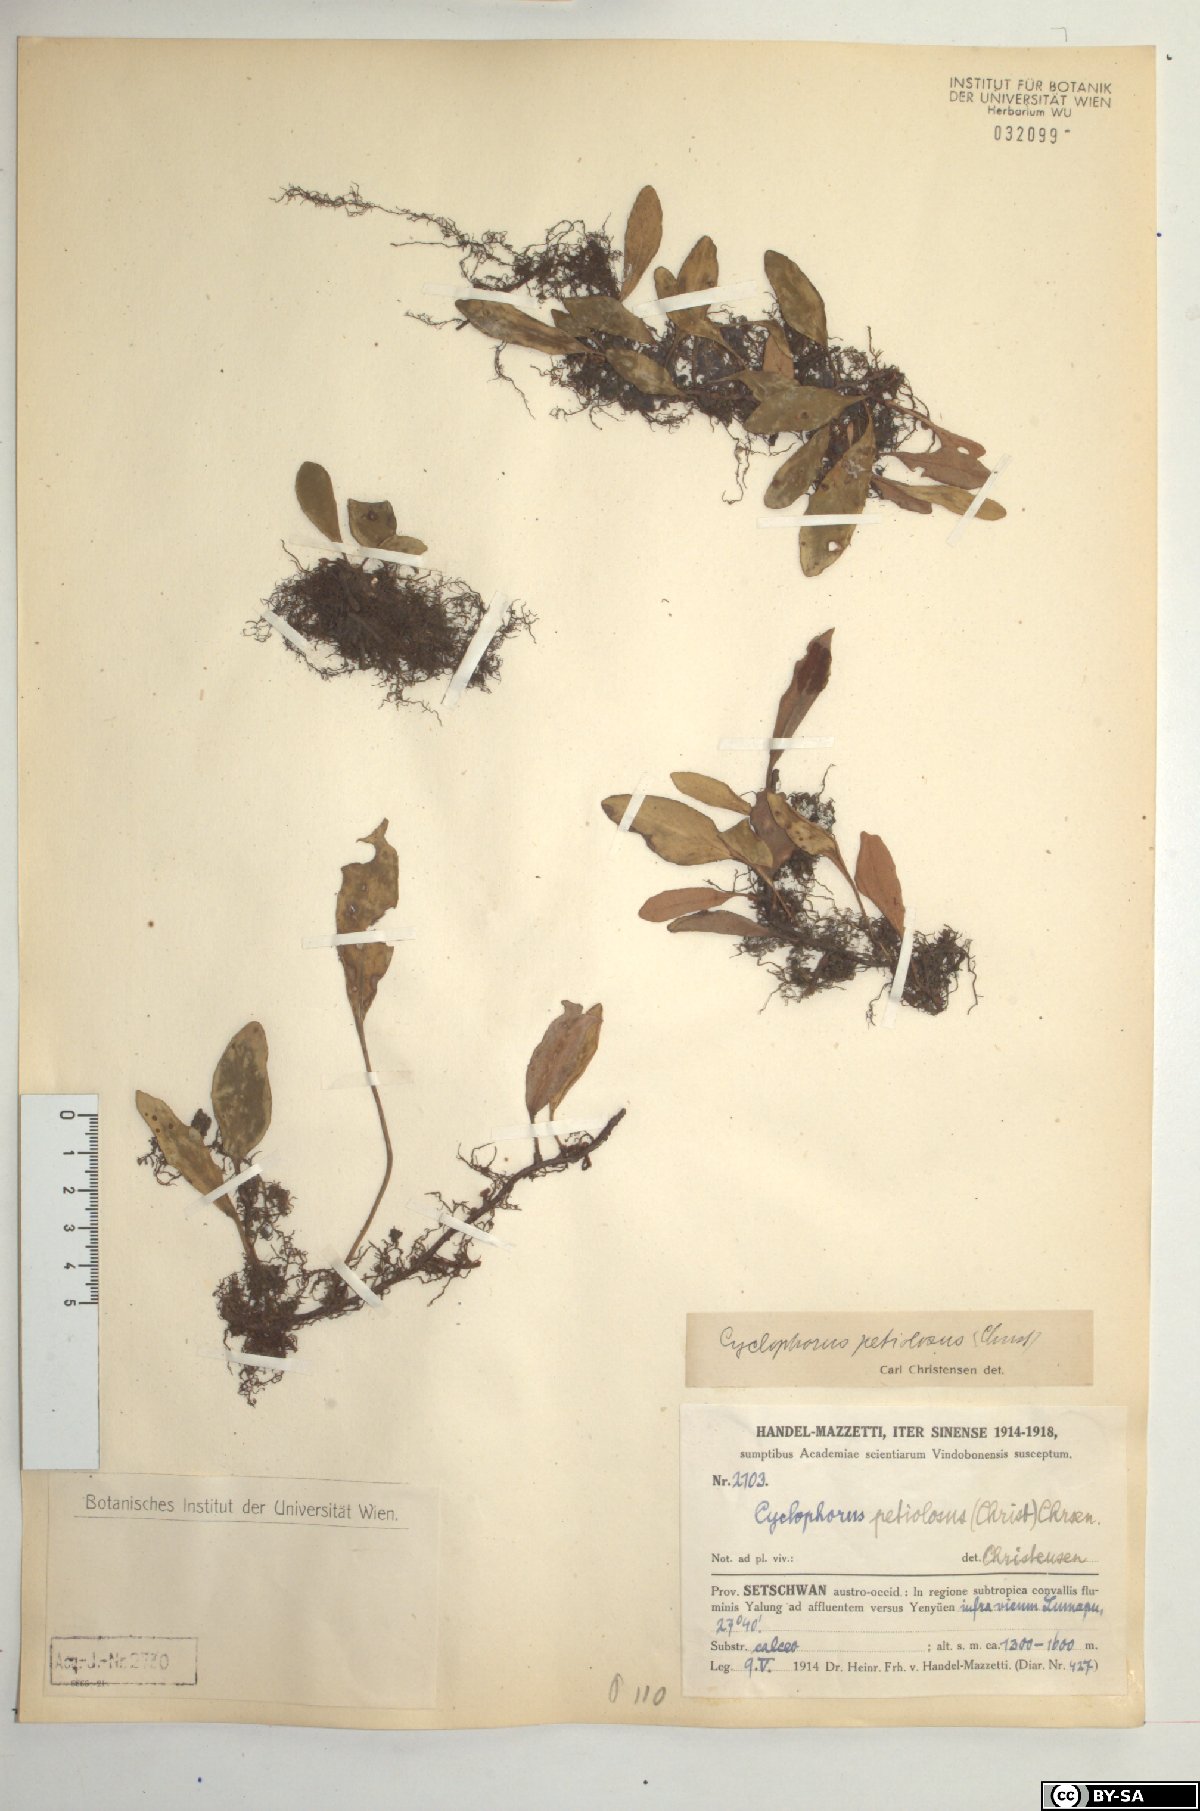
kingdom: Plantae
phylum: Tracheophyta
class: Polypodiopsida
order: Polypodiales
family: Polypodiaceae
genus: Pyrrosia
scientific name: Pyrrosia petiolosa
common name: Pyrrosia
